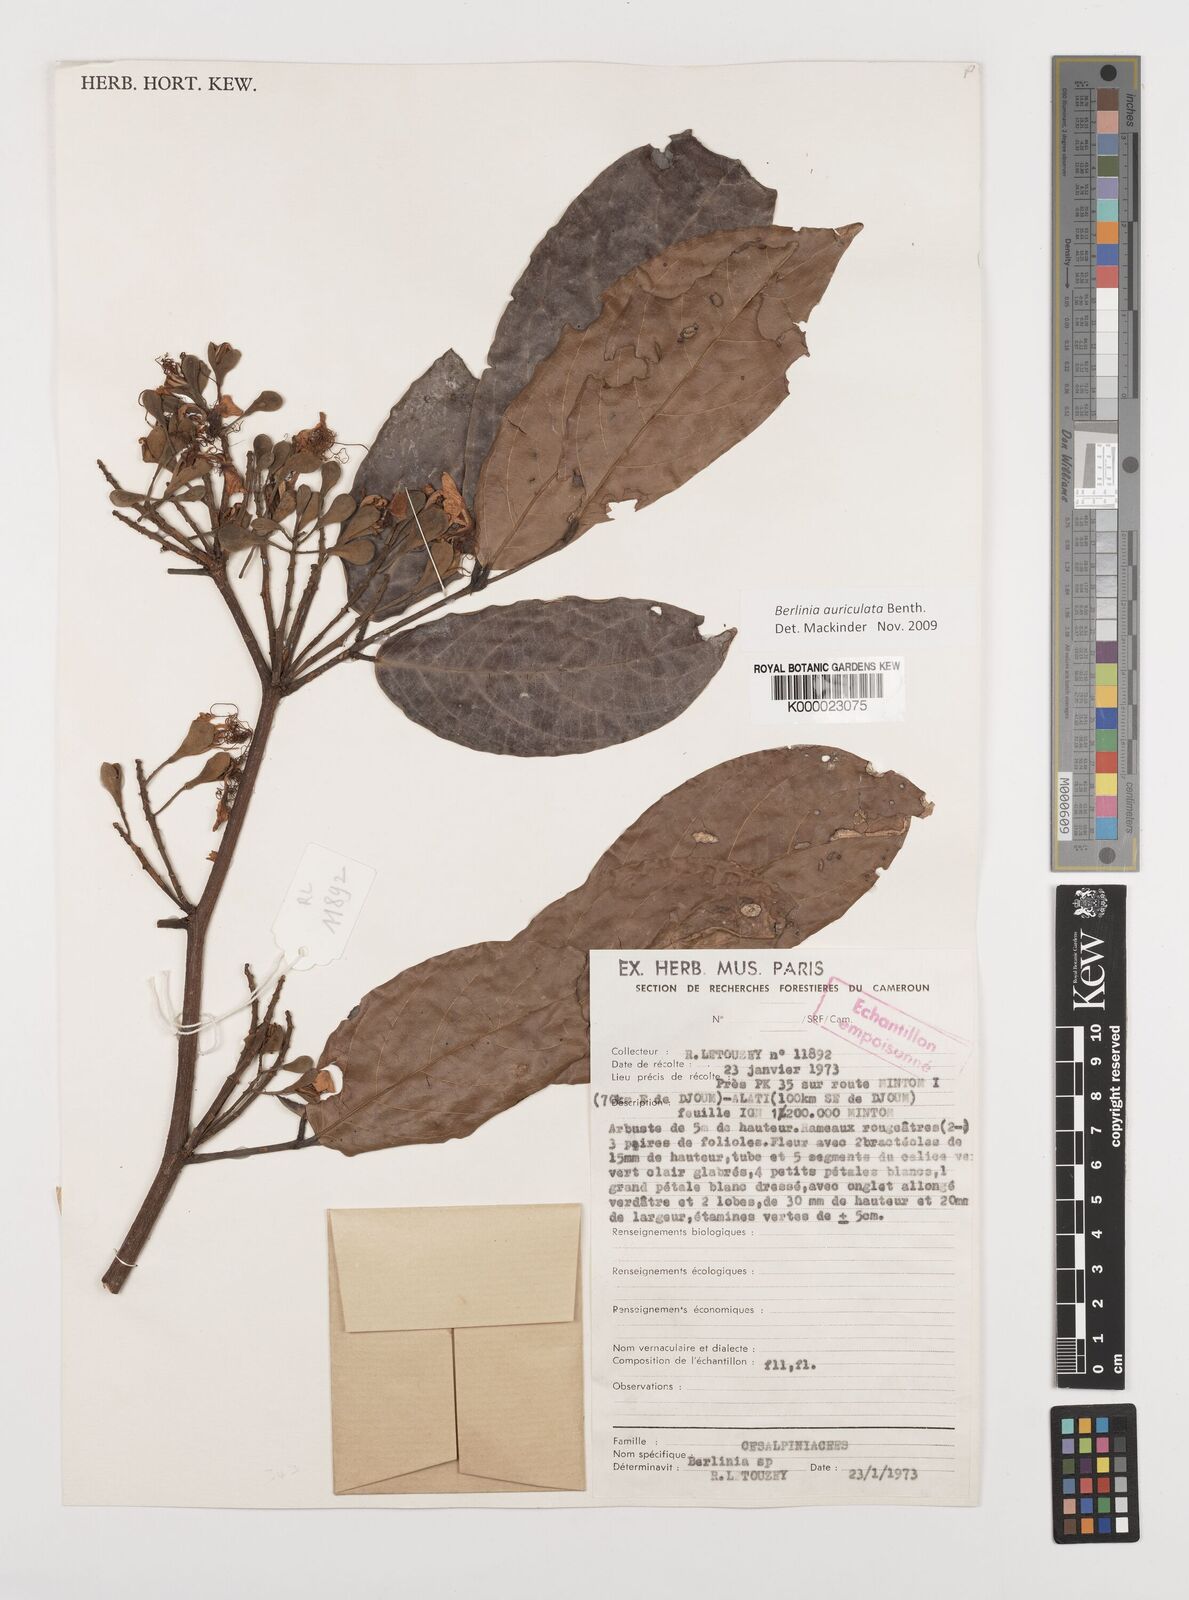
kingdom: Plantae
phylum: Tracheophyta
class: Magnoliopsida
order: Fabales
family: Fabaceae
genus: Berlinia
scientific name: Berlinia auriculata
